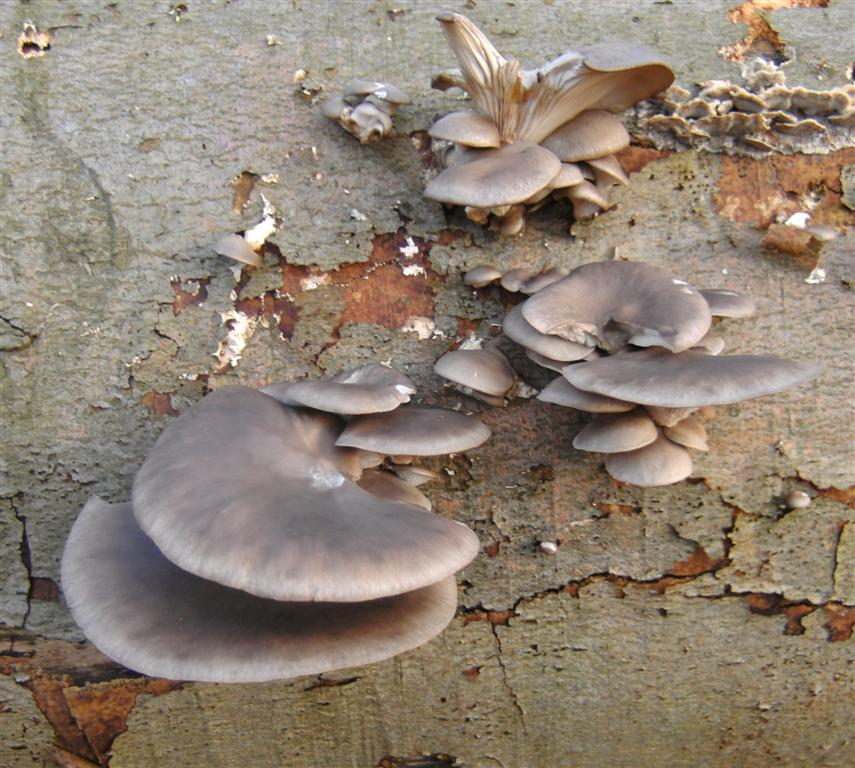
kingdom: Fungi
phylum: Basidiomycota
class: Agaricomycetes
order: Agaricales
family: Pleurotaceae
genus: Pleurotus
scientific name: Pleurotus ostreatus
